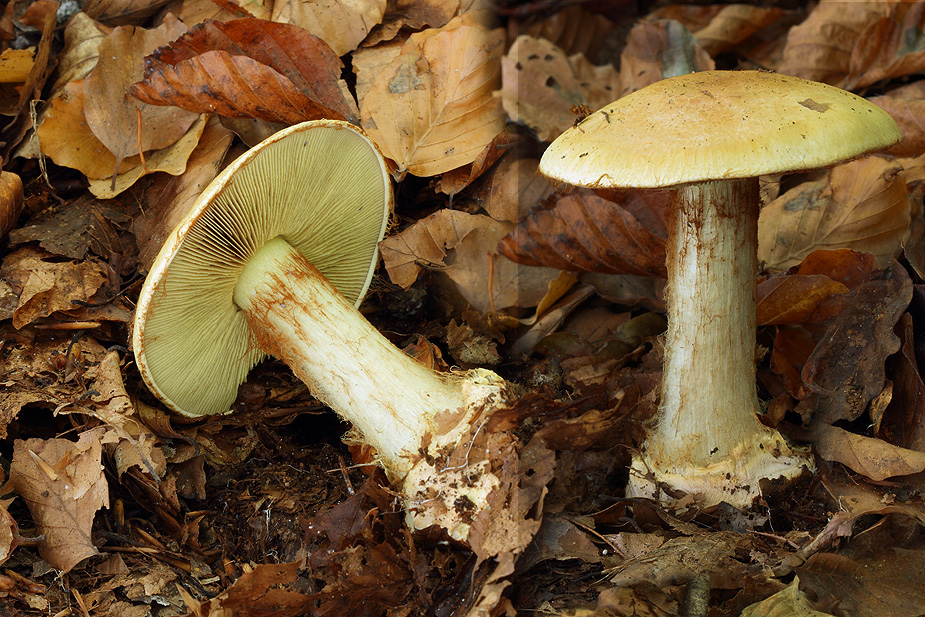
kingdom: Fungi
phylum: Basidiomycota
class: Agaricomycetes
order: Agaricales
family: Cortinariaceae
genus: Calonarius
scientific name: Calonarius elegantissimus
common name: orangegylden slørhat
